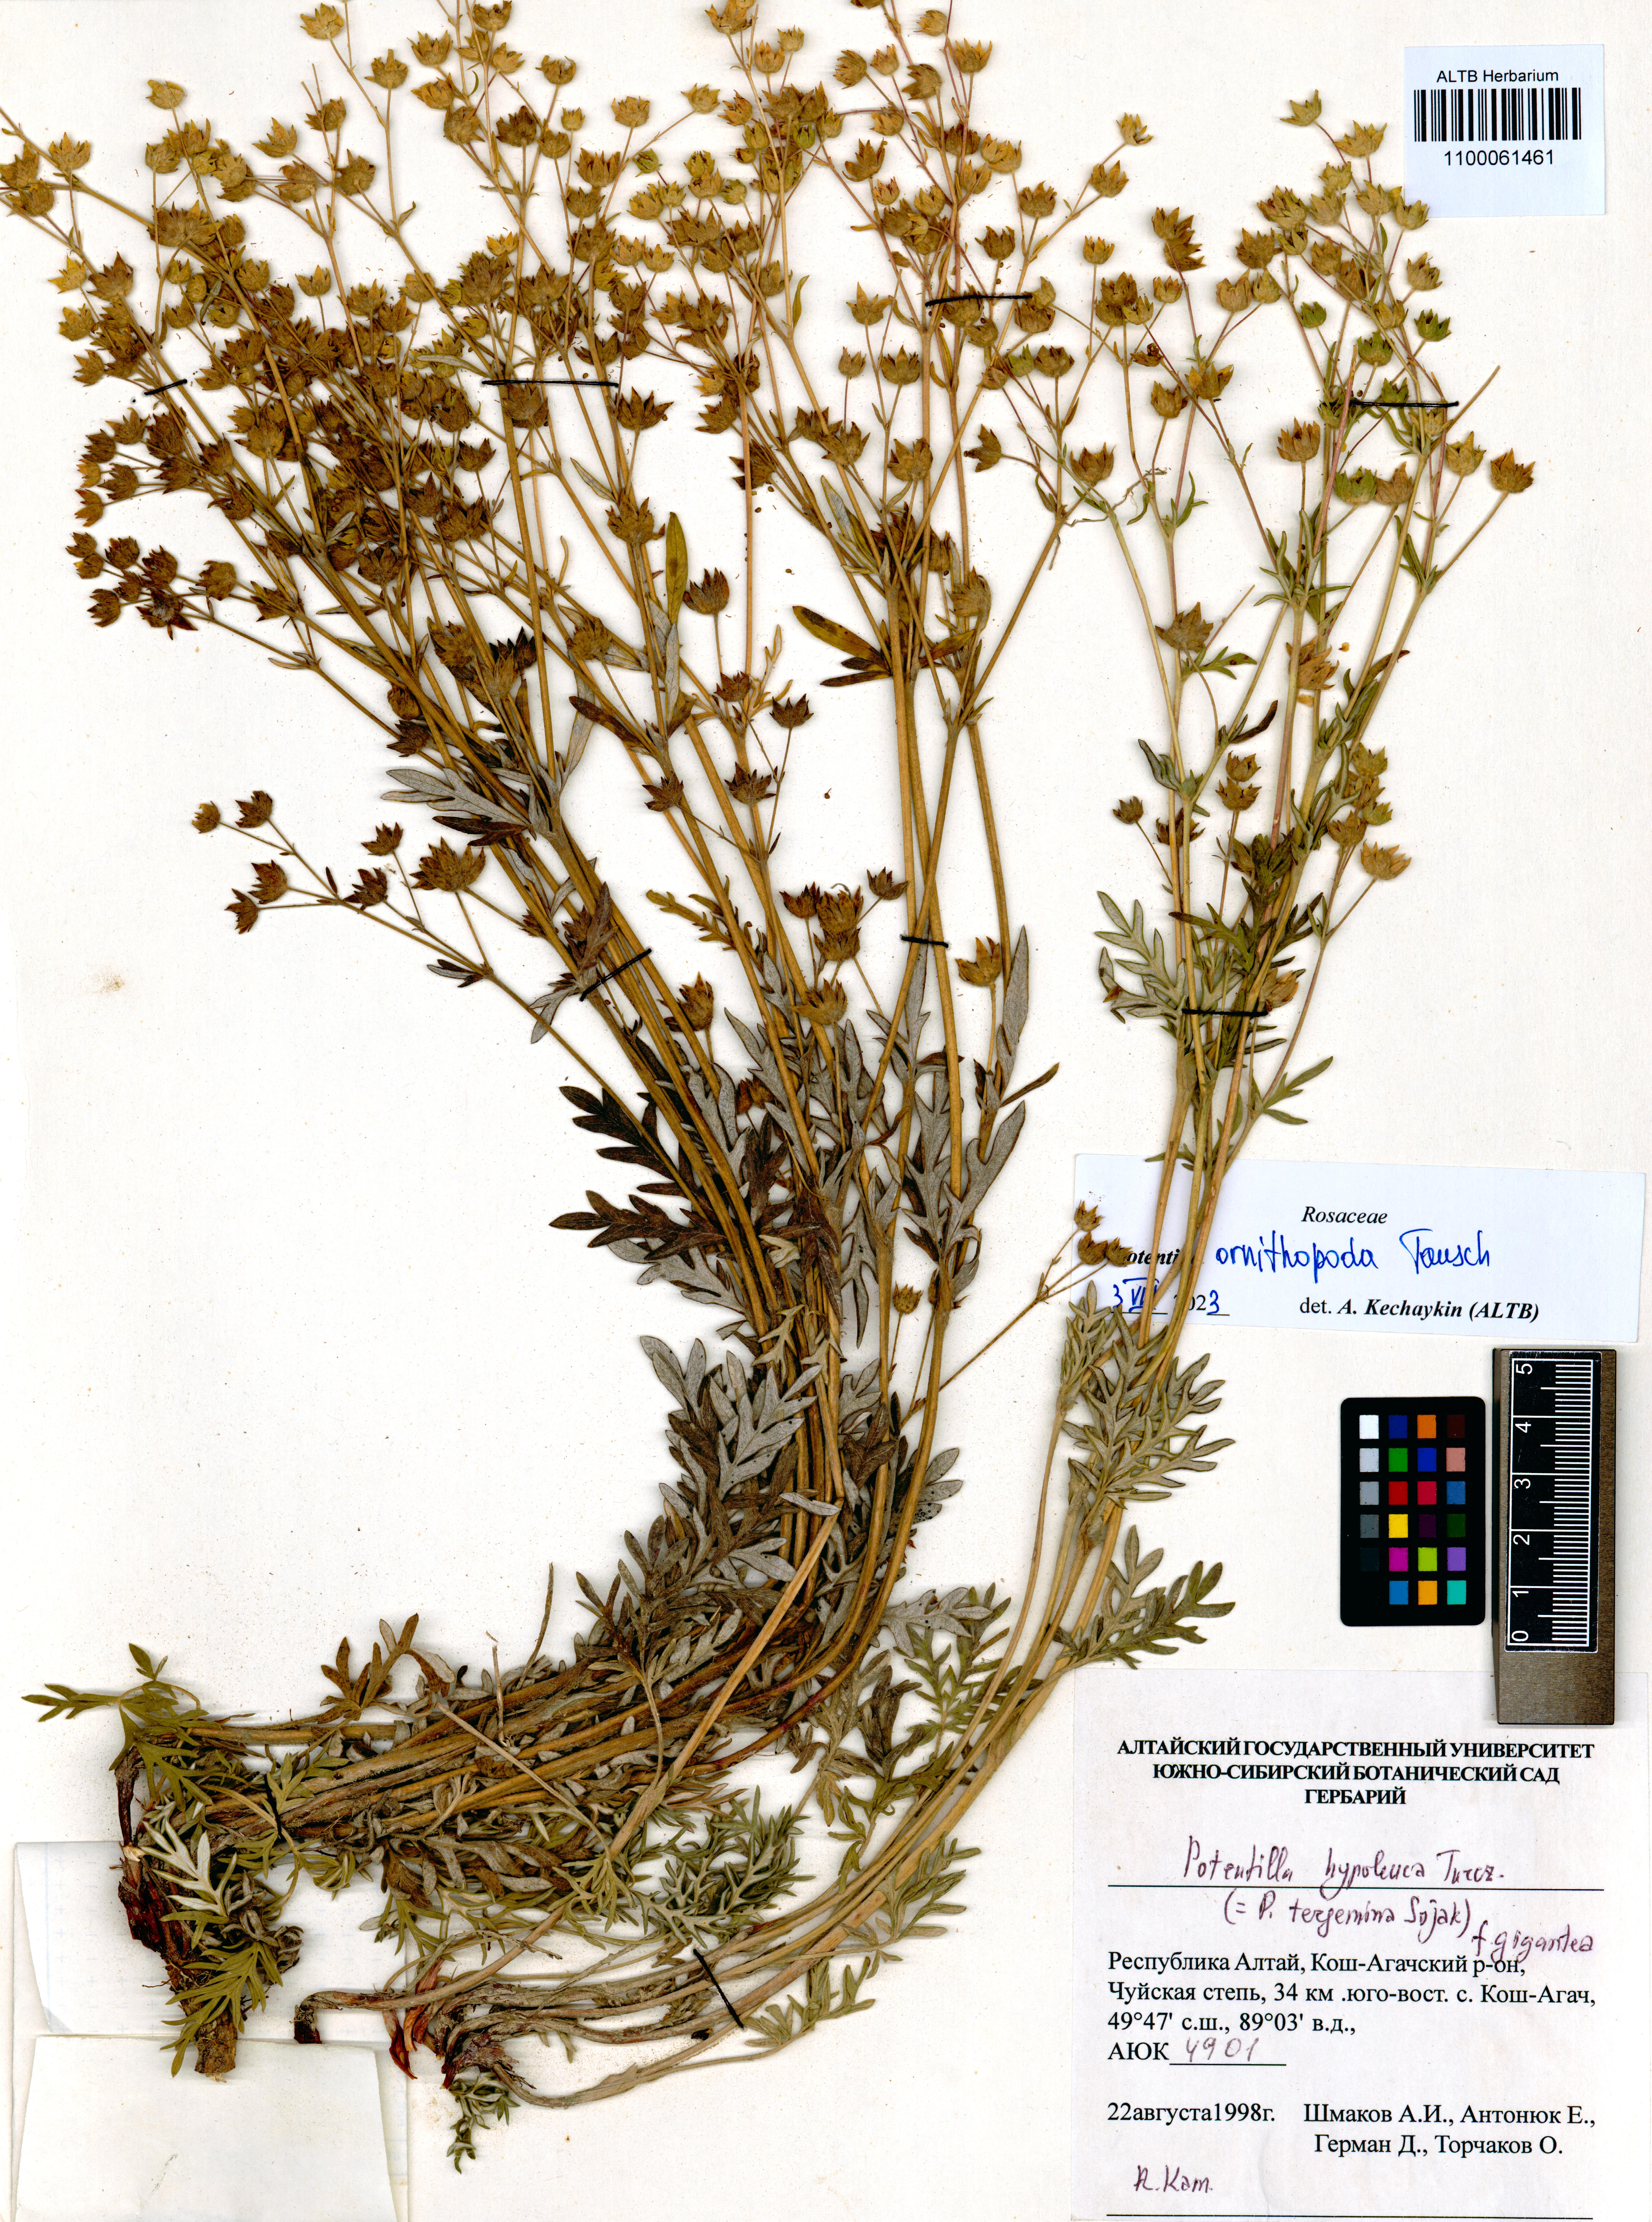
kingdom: Plantae
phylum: Tracheophyta
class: Magnoliopsida
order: Rosales
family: Rosaceae
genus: Potentilla
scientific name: Potentilla ornithopoda
